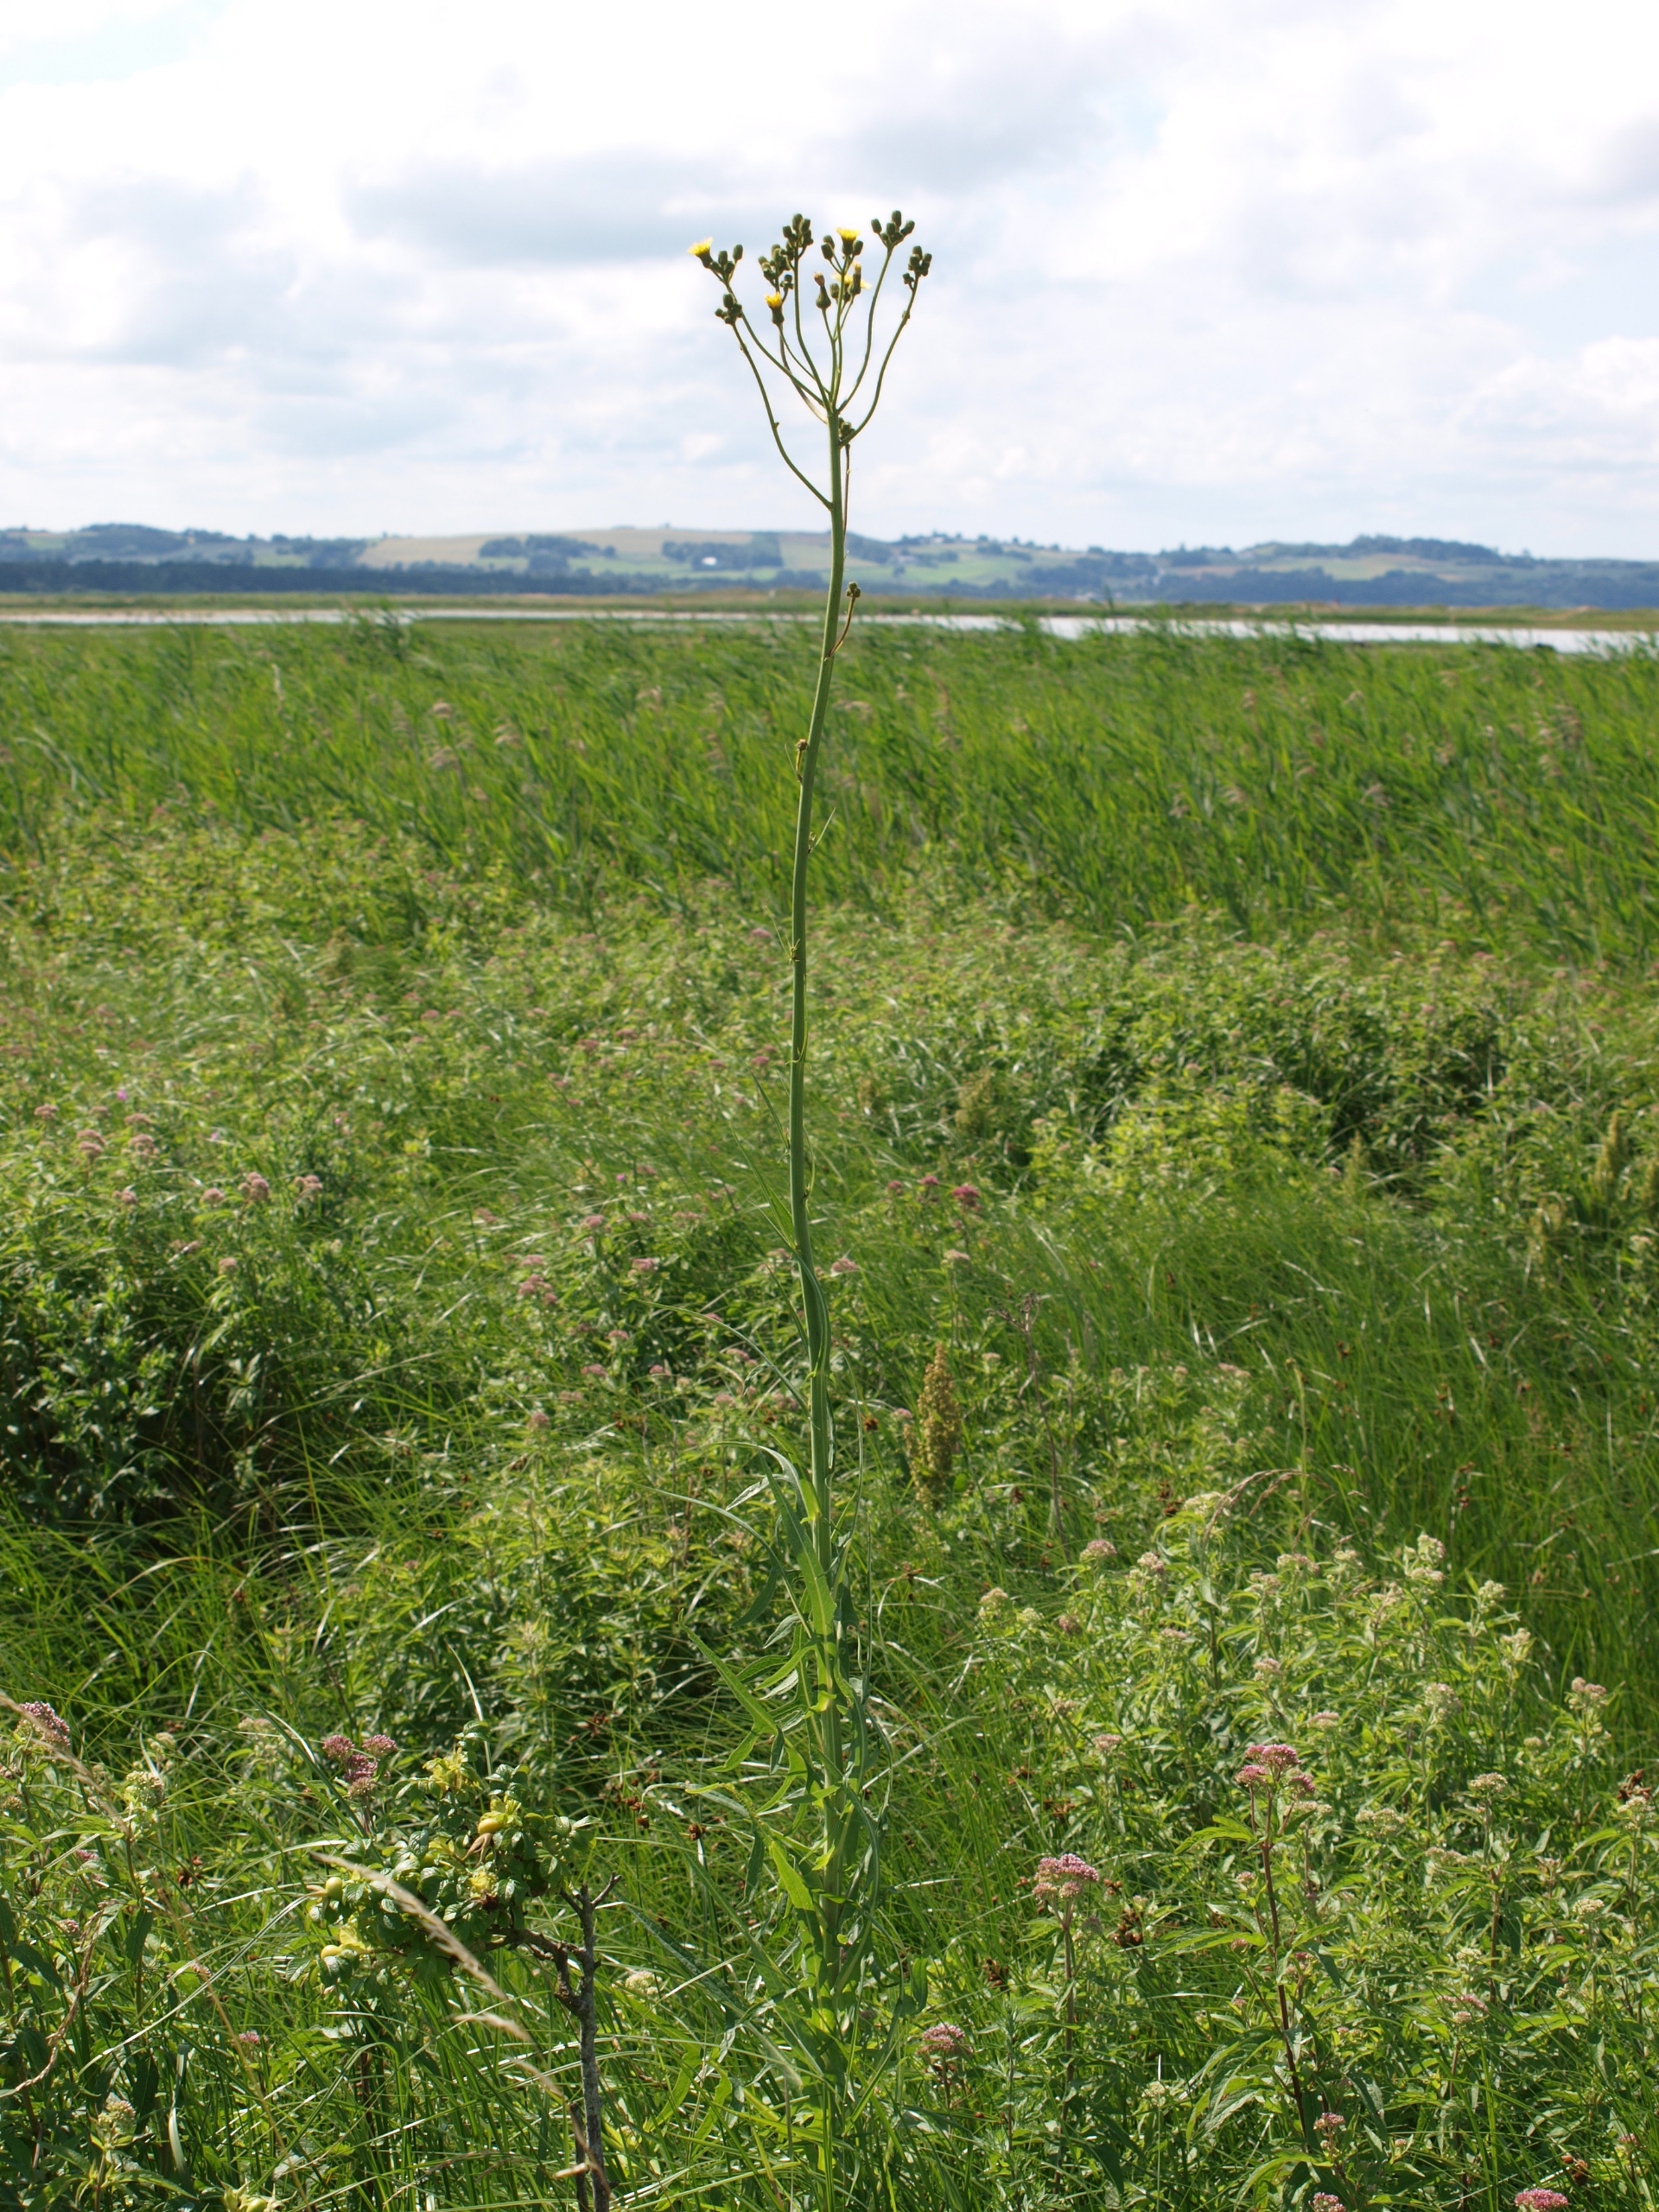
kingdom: Plantae
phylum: Tracheophyta
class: Magnoliopsida
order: Asterales
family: Asteraceae
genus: Sonchus
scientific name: Sonchus palustris
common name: Kær-svinemælk
